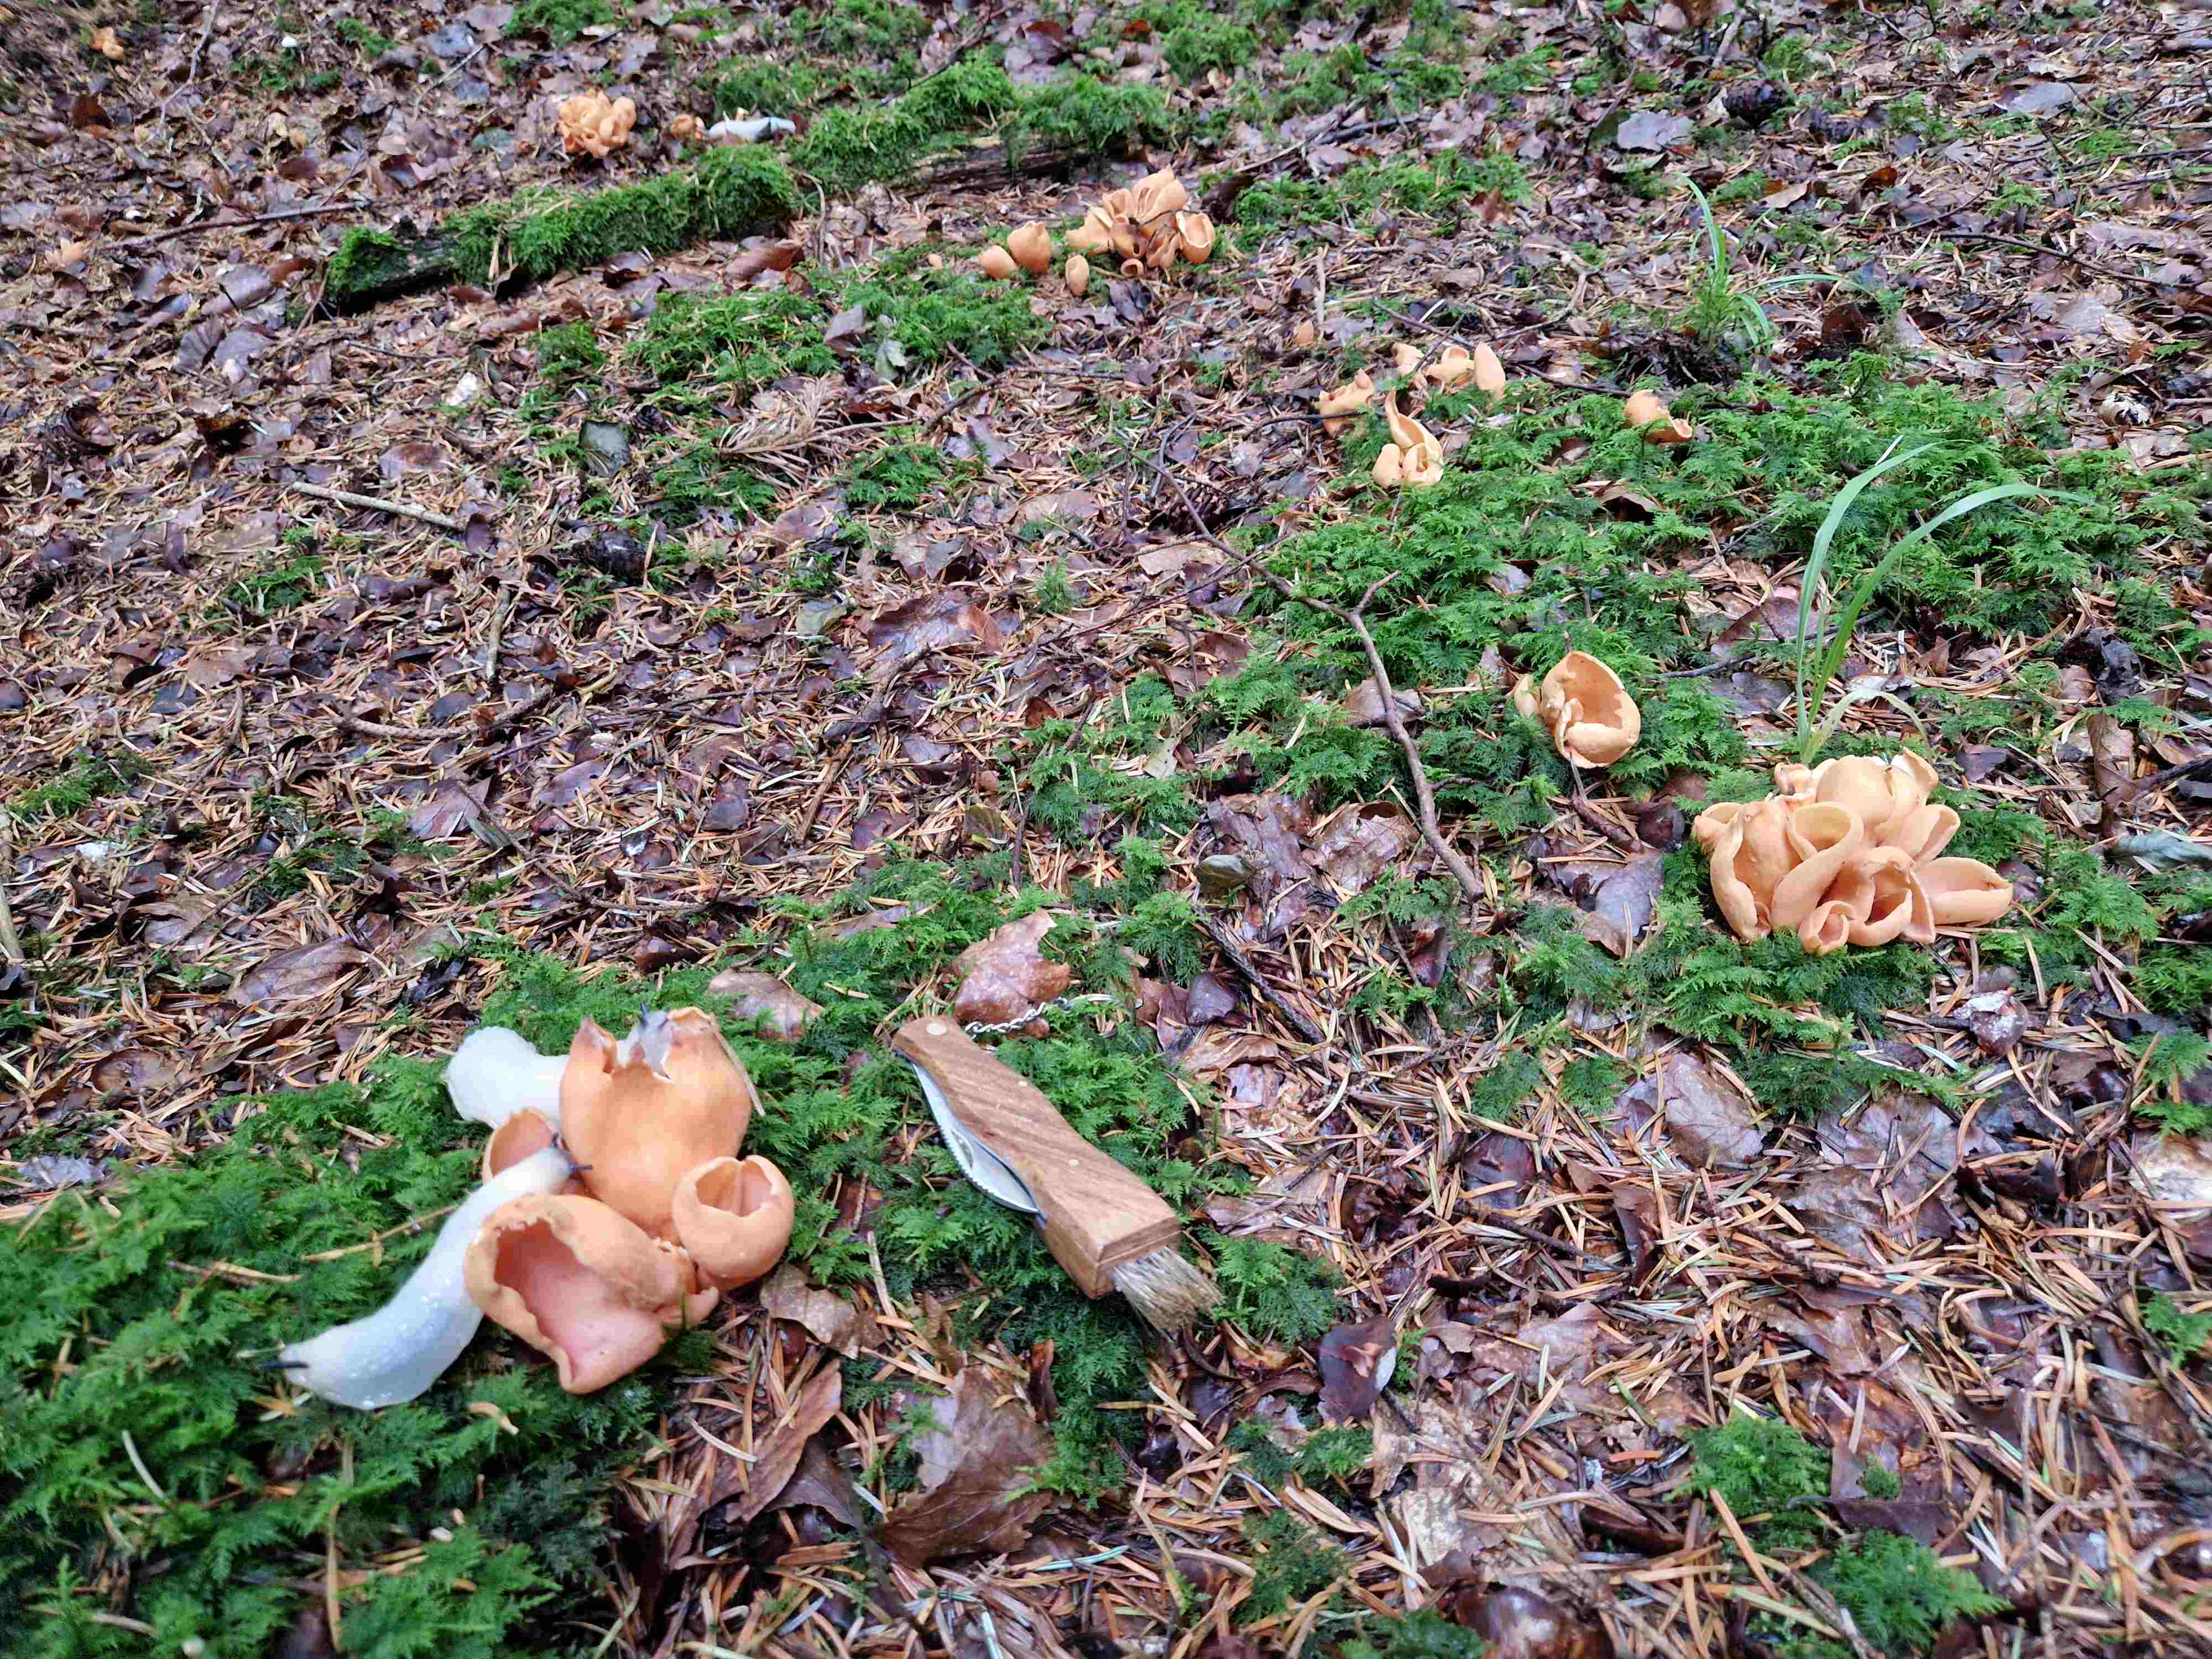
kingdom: Fungi
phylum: Ascomycota
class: Pezizomycetes
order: Pezizales
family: Otideaceae
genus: Otidea
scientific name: Otidea onotica
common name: æsel-ørebæger
